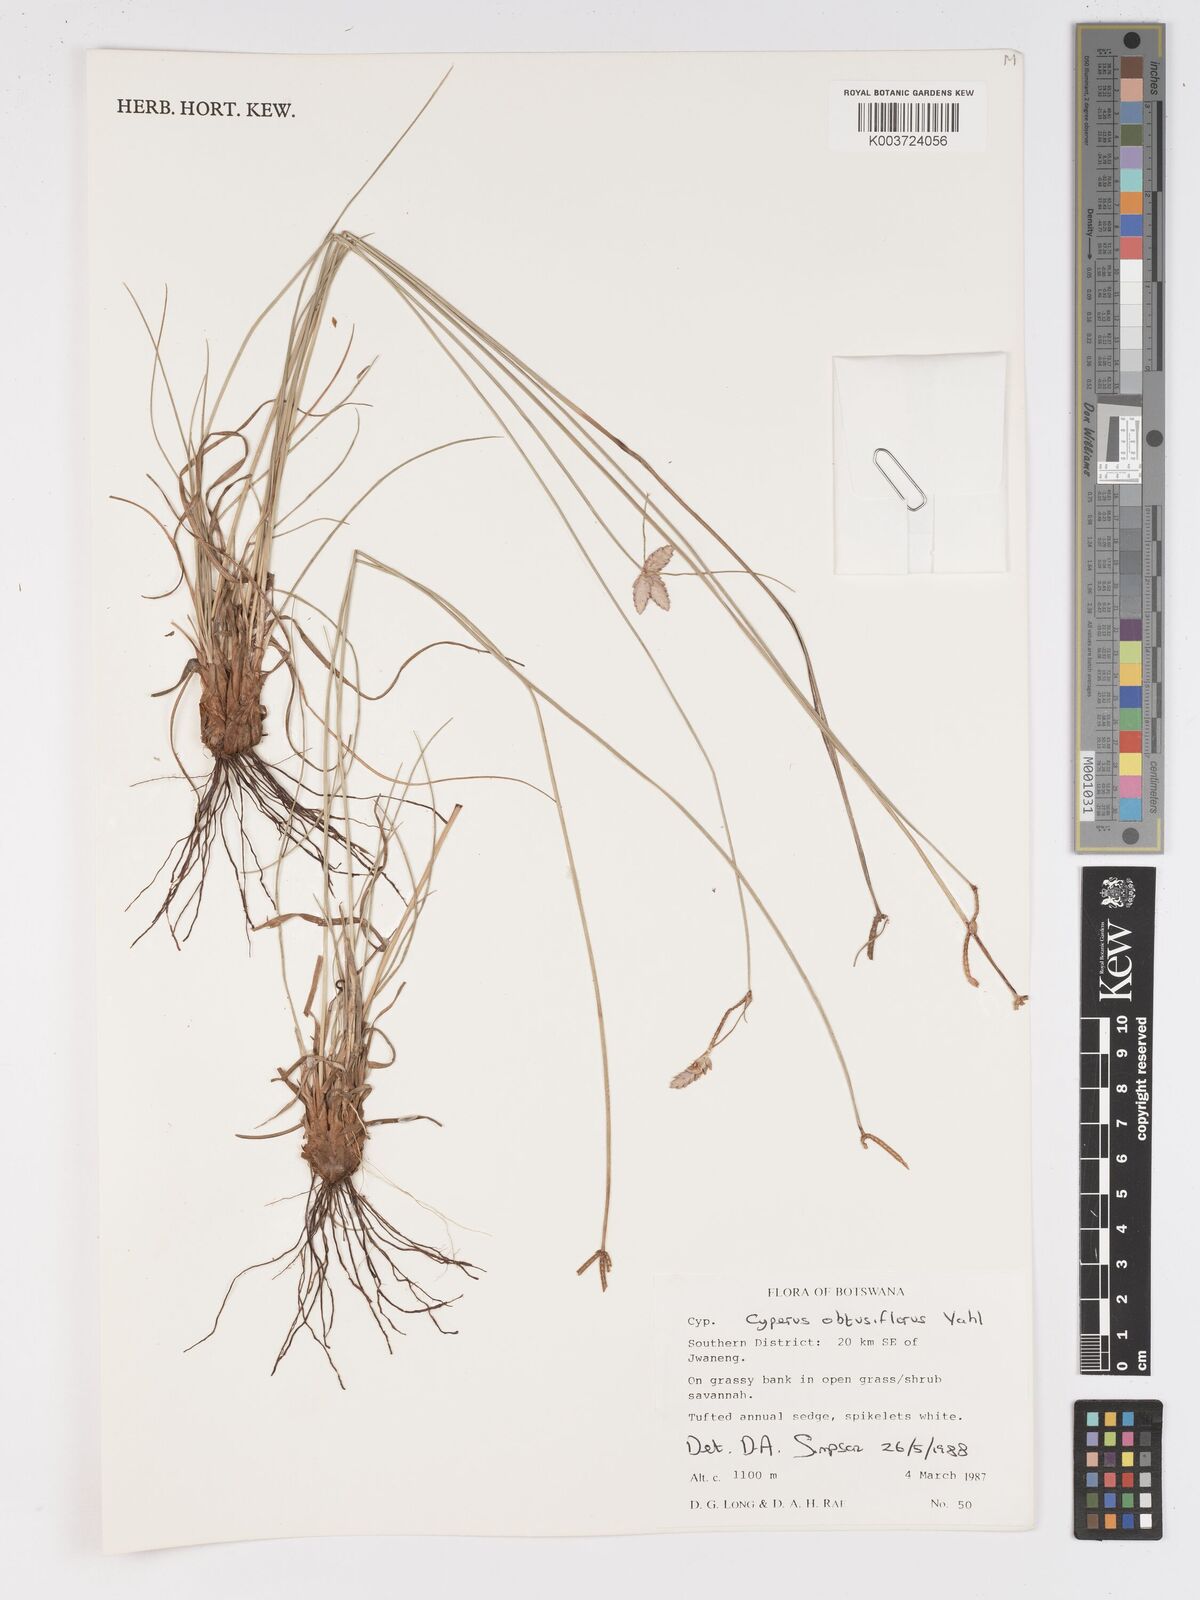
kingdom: Plantae
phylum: Tracheophyta
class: Liliopsida
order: Poales
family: Cyperaceae
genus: Cyperus
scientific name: Cyperus niveus
